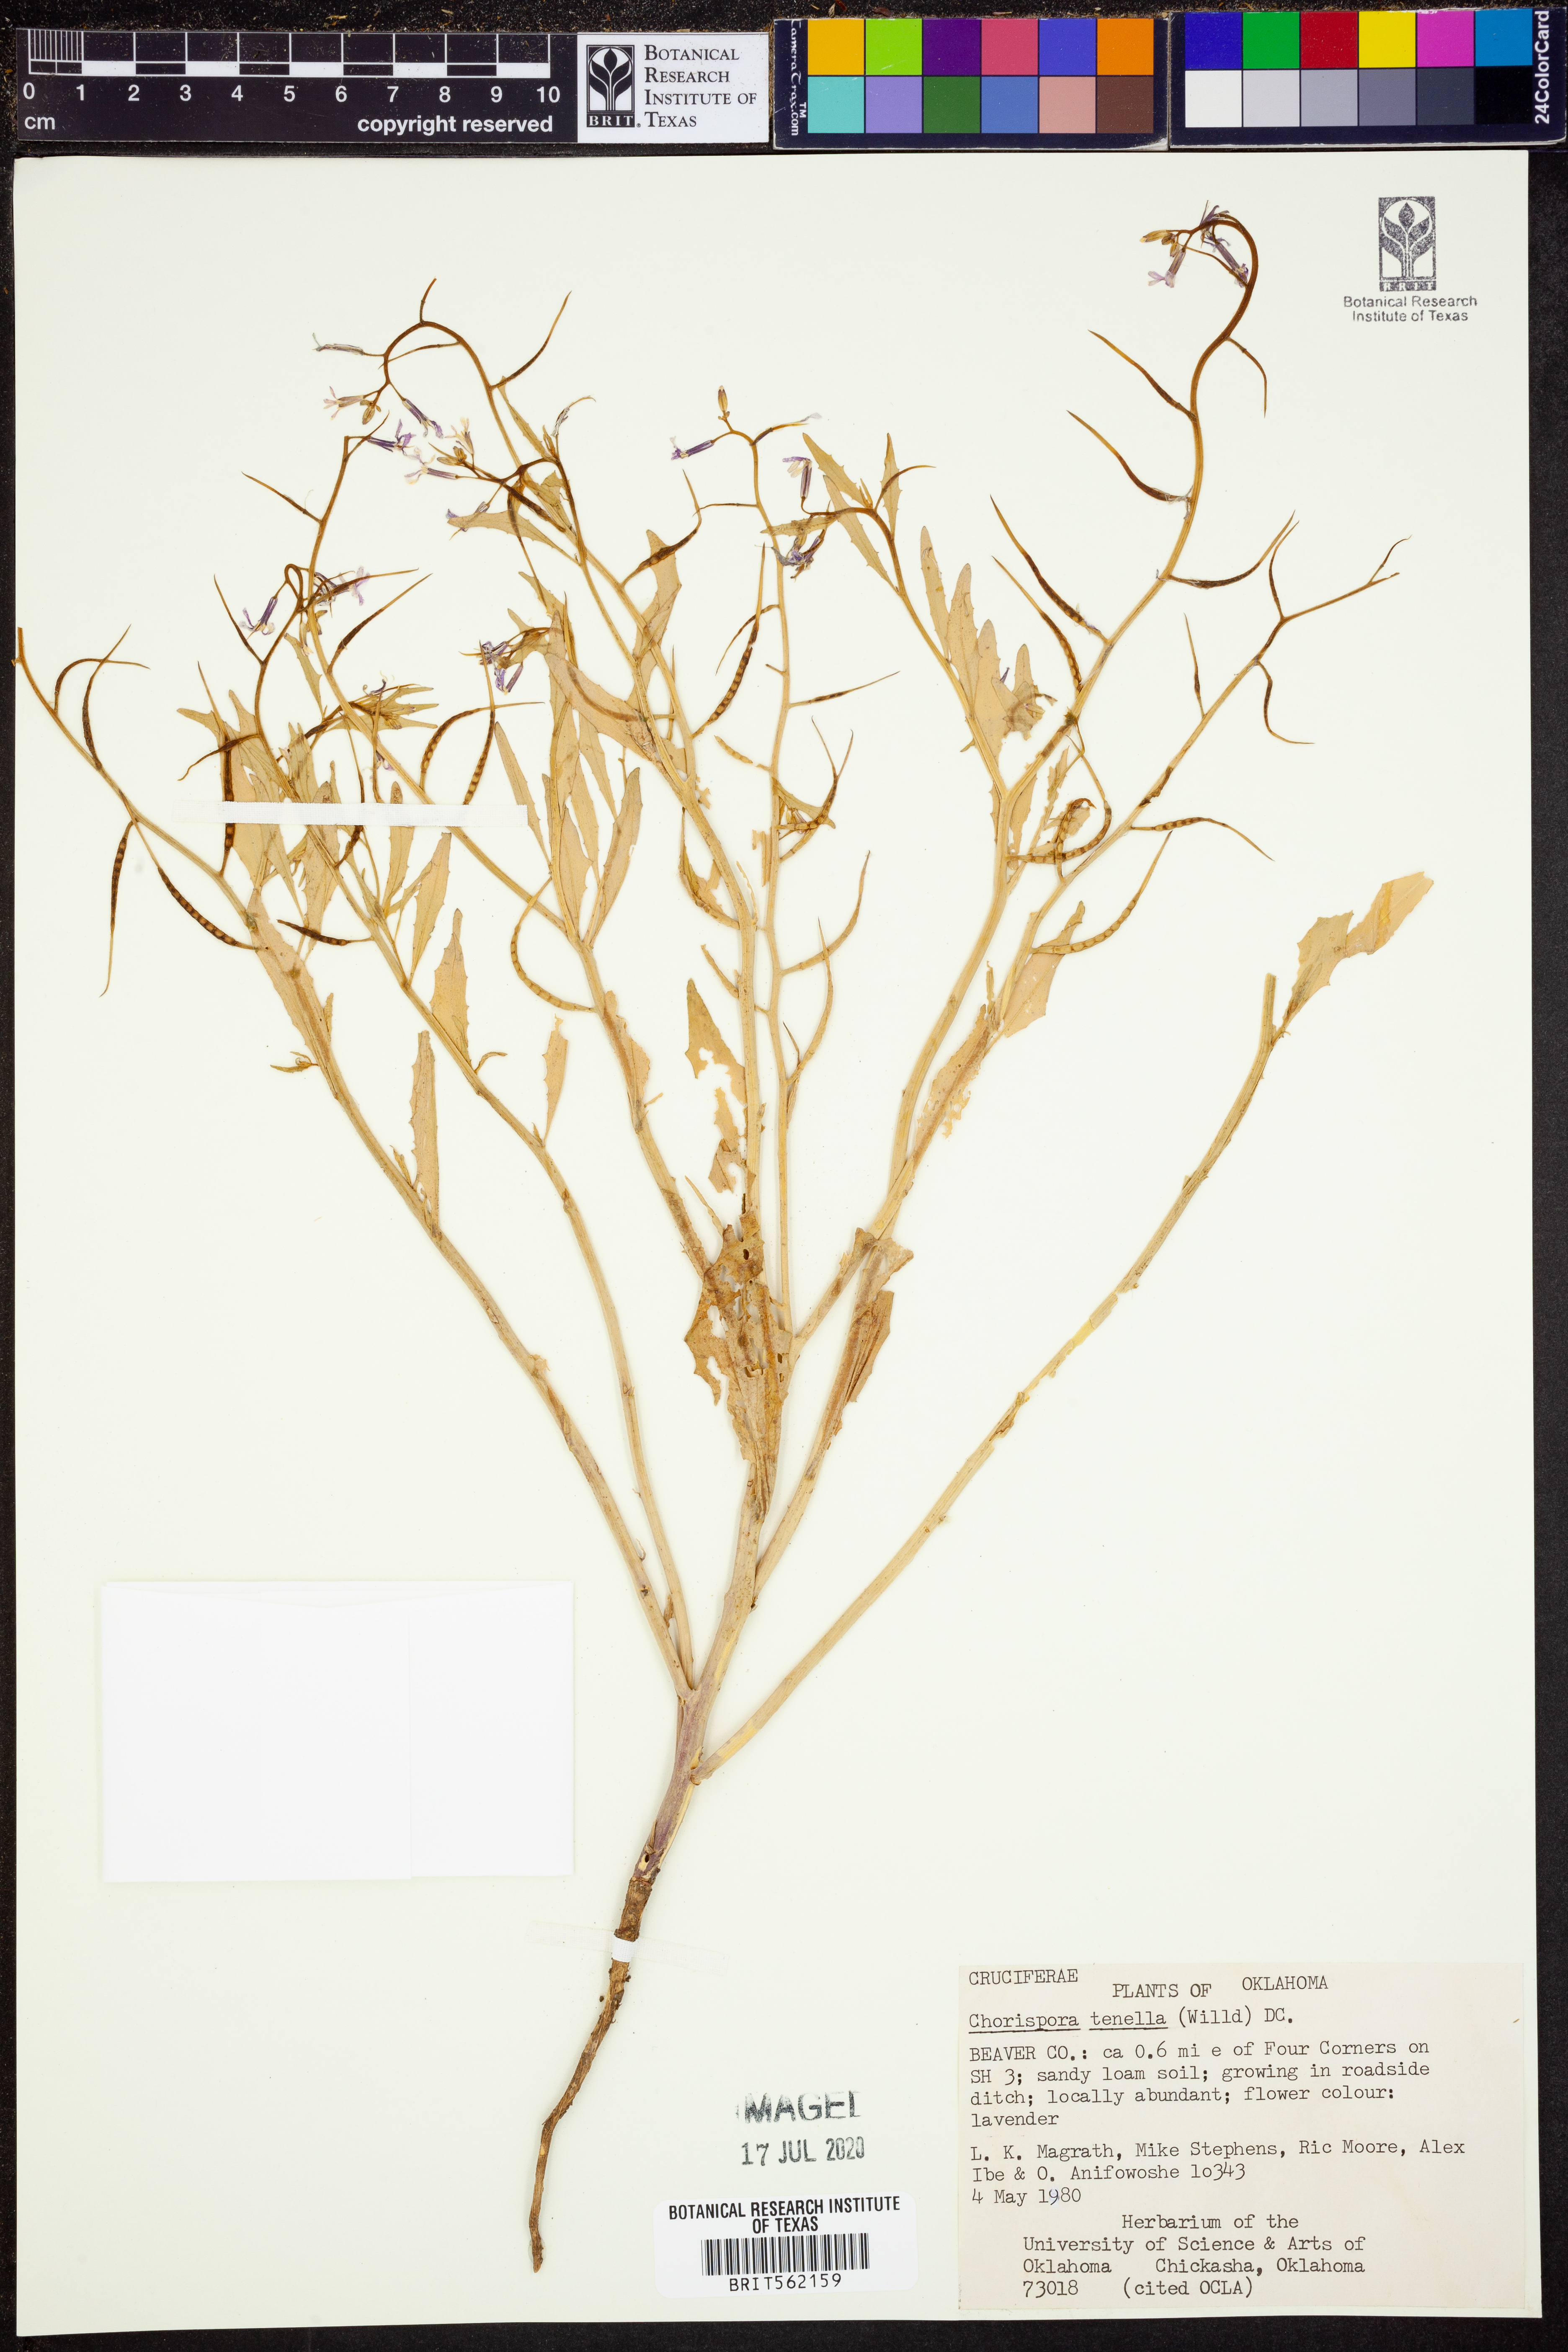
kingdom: Plantae
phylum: Tracheophyta
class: Magnoliopsida
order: Brassicales
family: Brassicaceae
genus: Chorispora
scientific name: Chorispora tenella
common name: Crossflower
